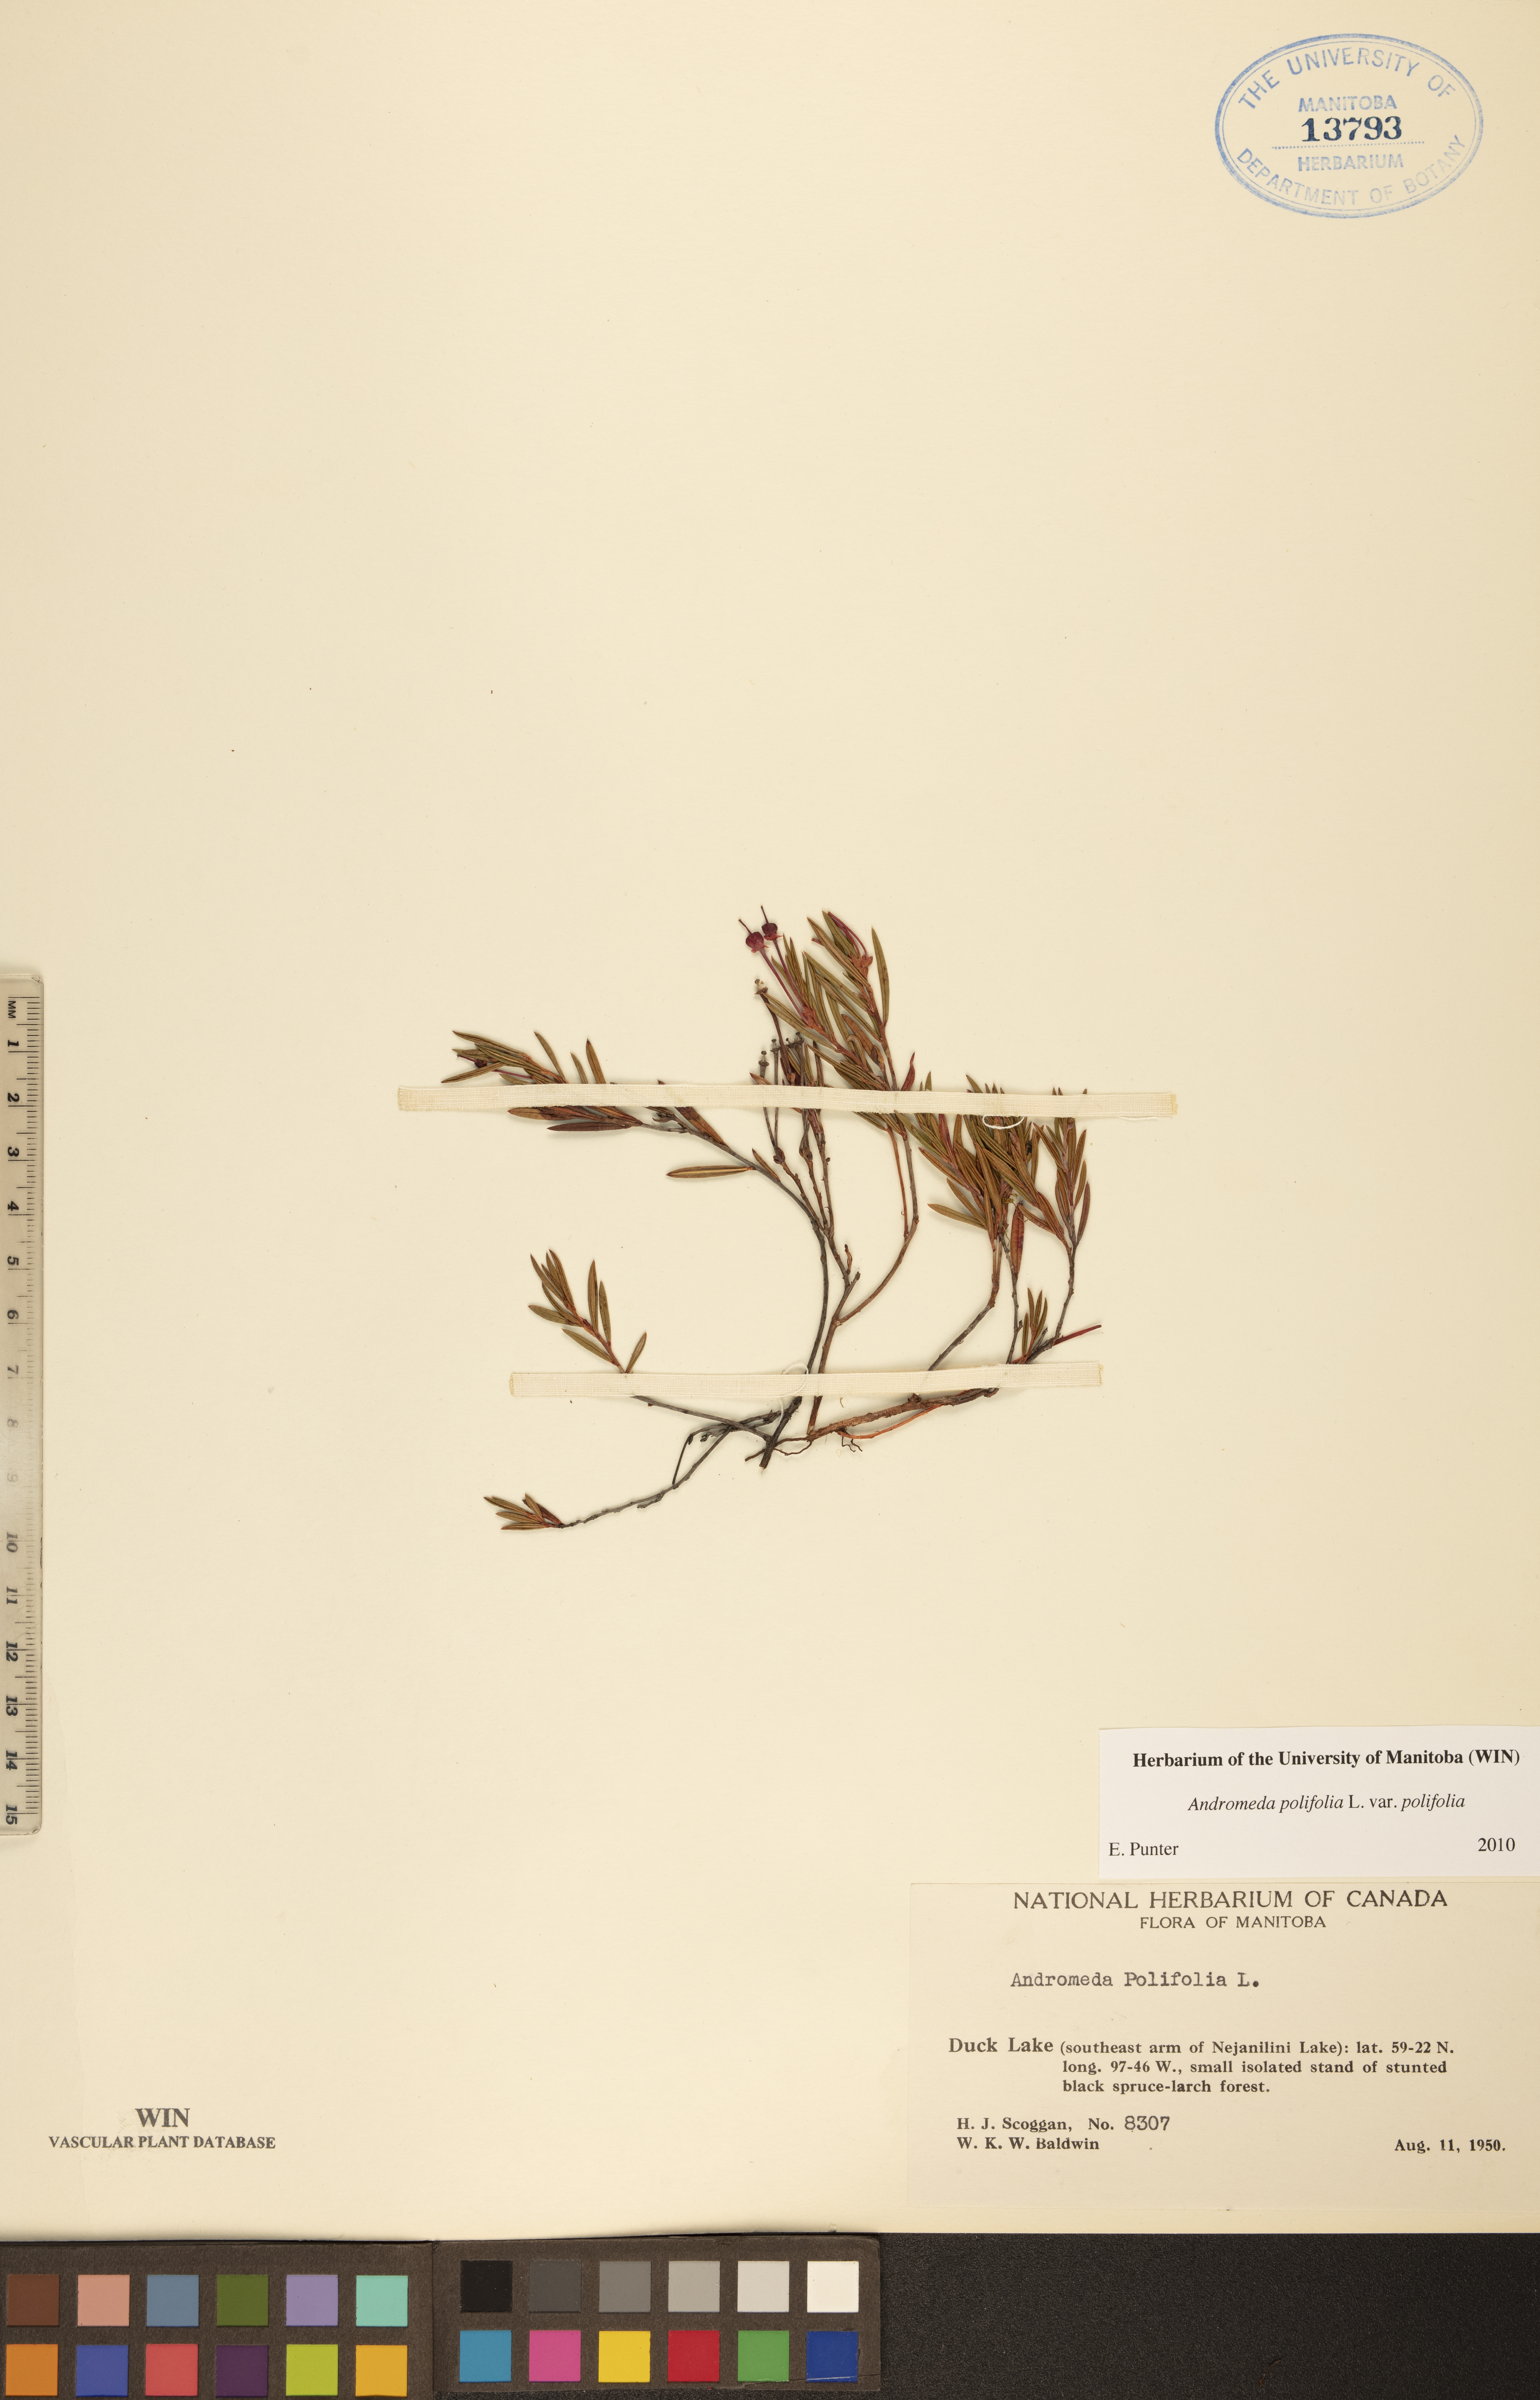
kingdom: Plantae
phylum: Tracheophyta
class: Magnoliopsida
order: Ericales
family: Ericaceae
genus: Andromeda
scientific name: Andromeda polifolia
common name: Bog-rosemary
